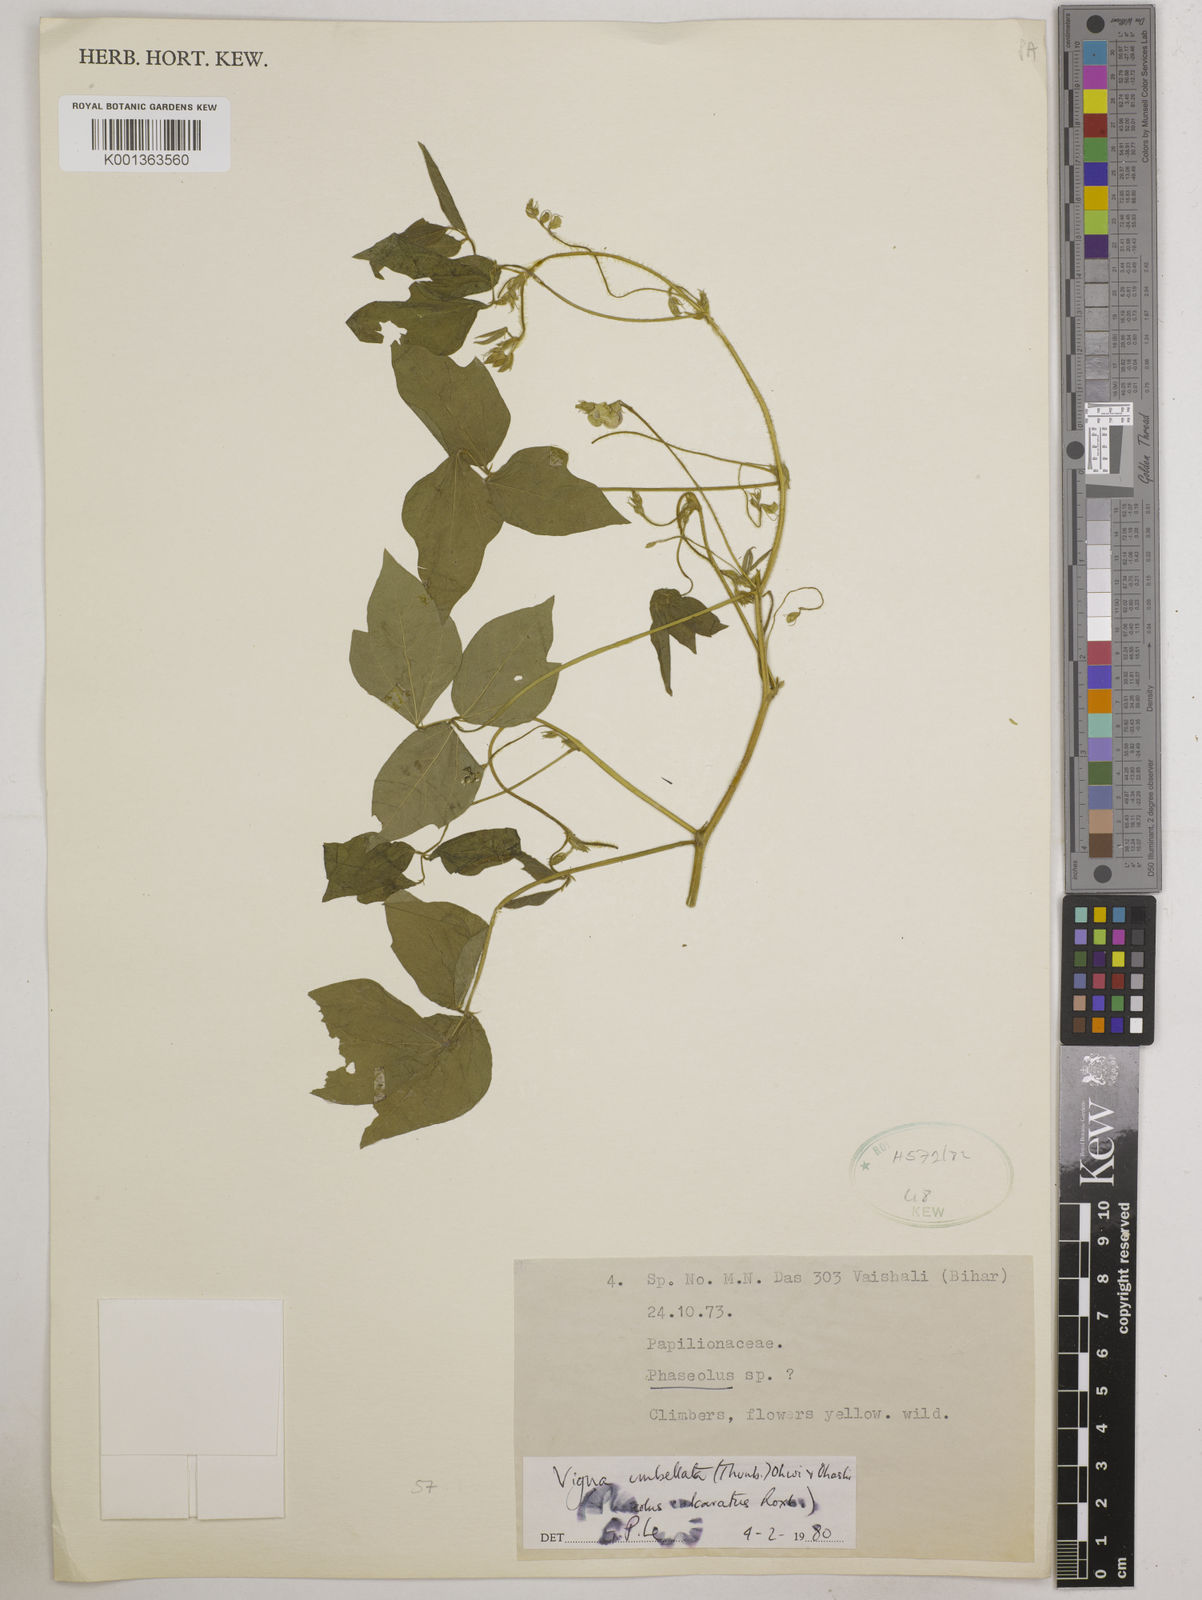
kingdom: Plantae
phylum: Tracheophyta
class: Magnoliopsida
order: Fabales
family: Fabaceae
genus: Vigna
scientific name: Vigna umbellata
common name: Oriental-bean
